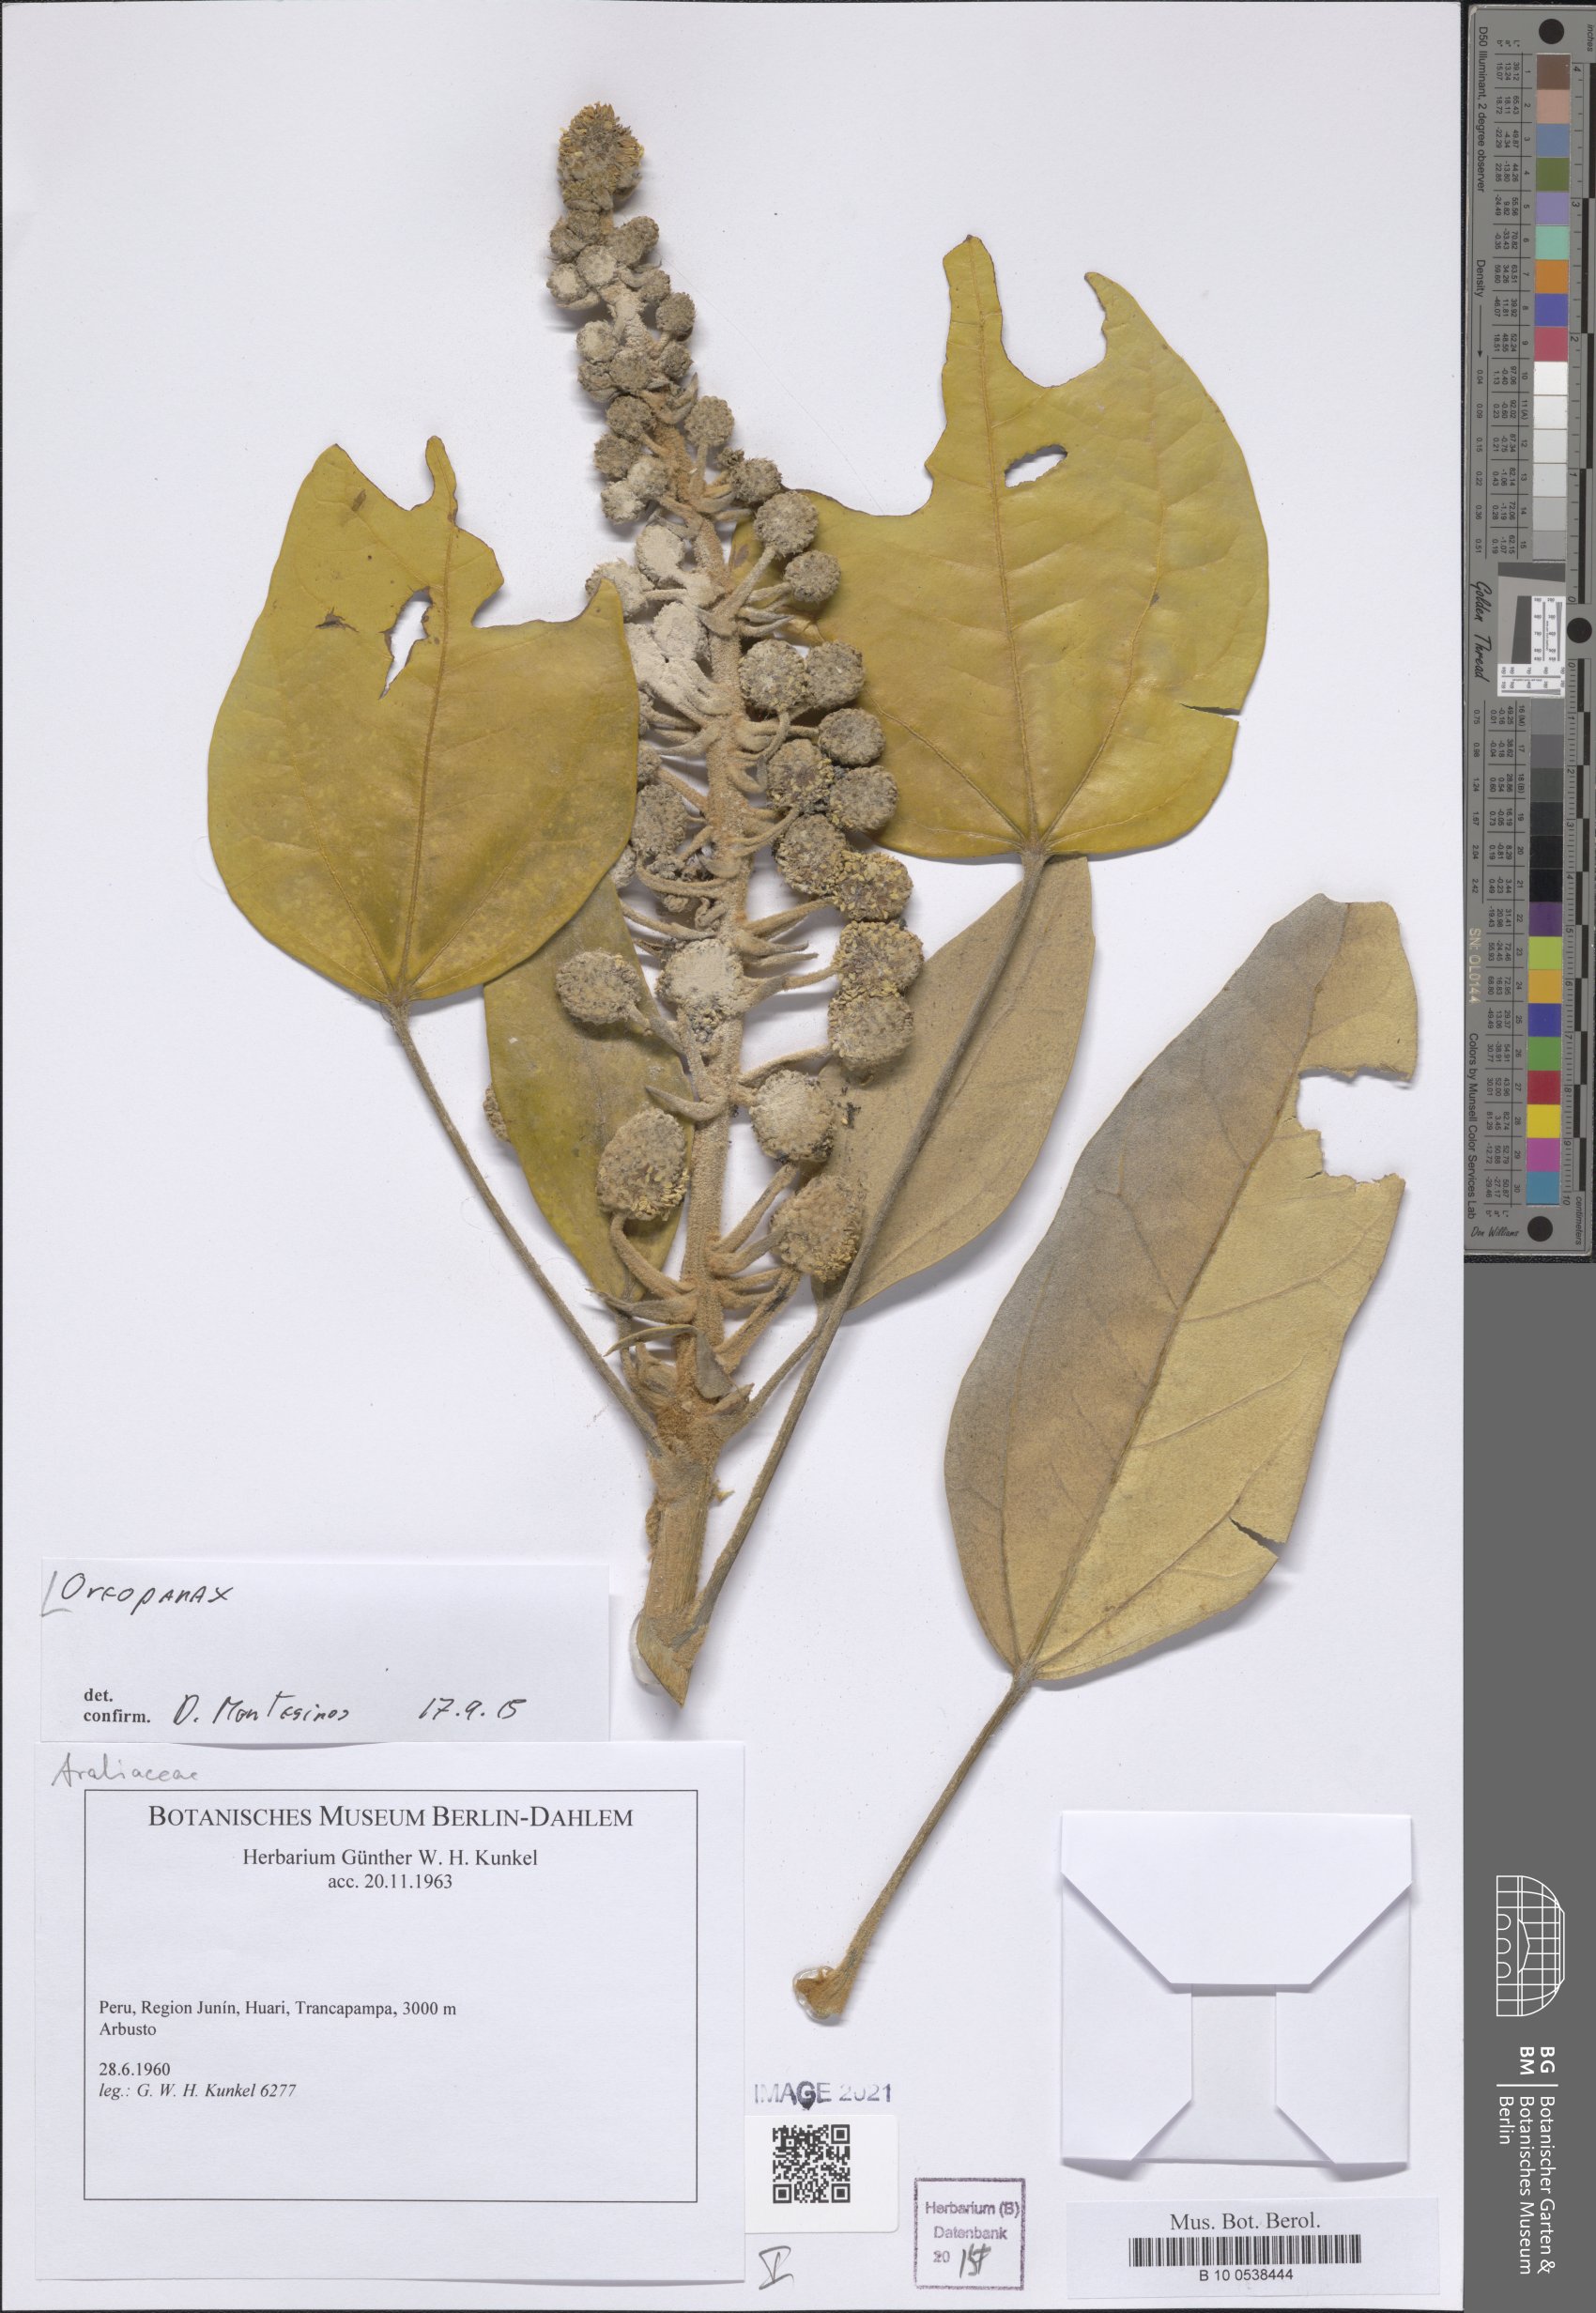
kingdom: Plantae
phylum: Tracheophyta
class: Magnoliopsida
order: Apiales
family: Araliaceae
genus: Oreopanax
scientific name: Oreopanax
